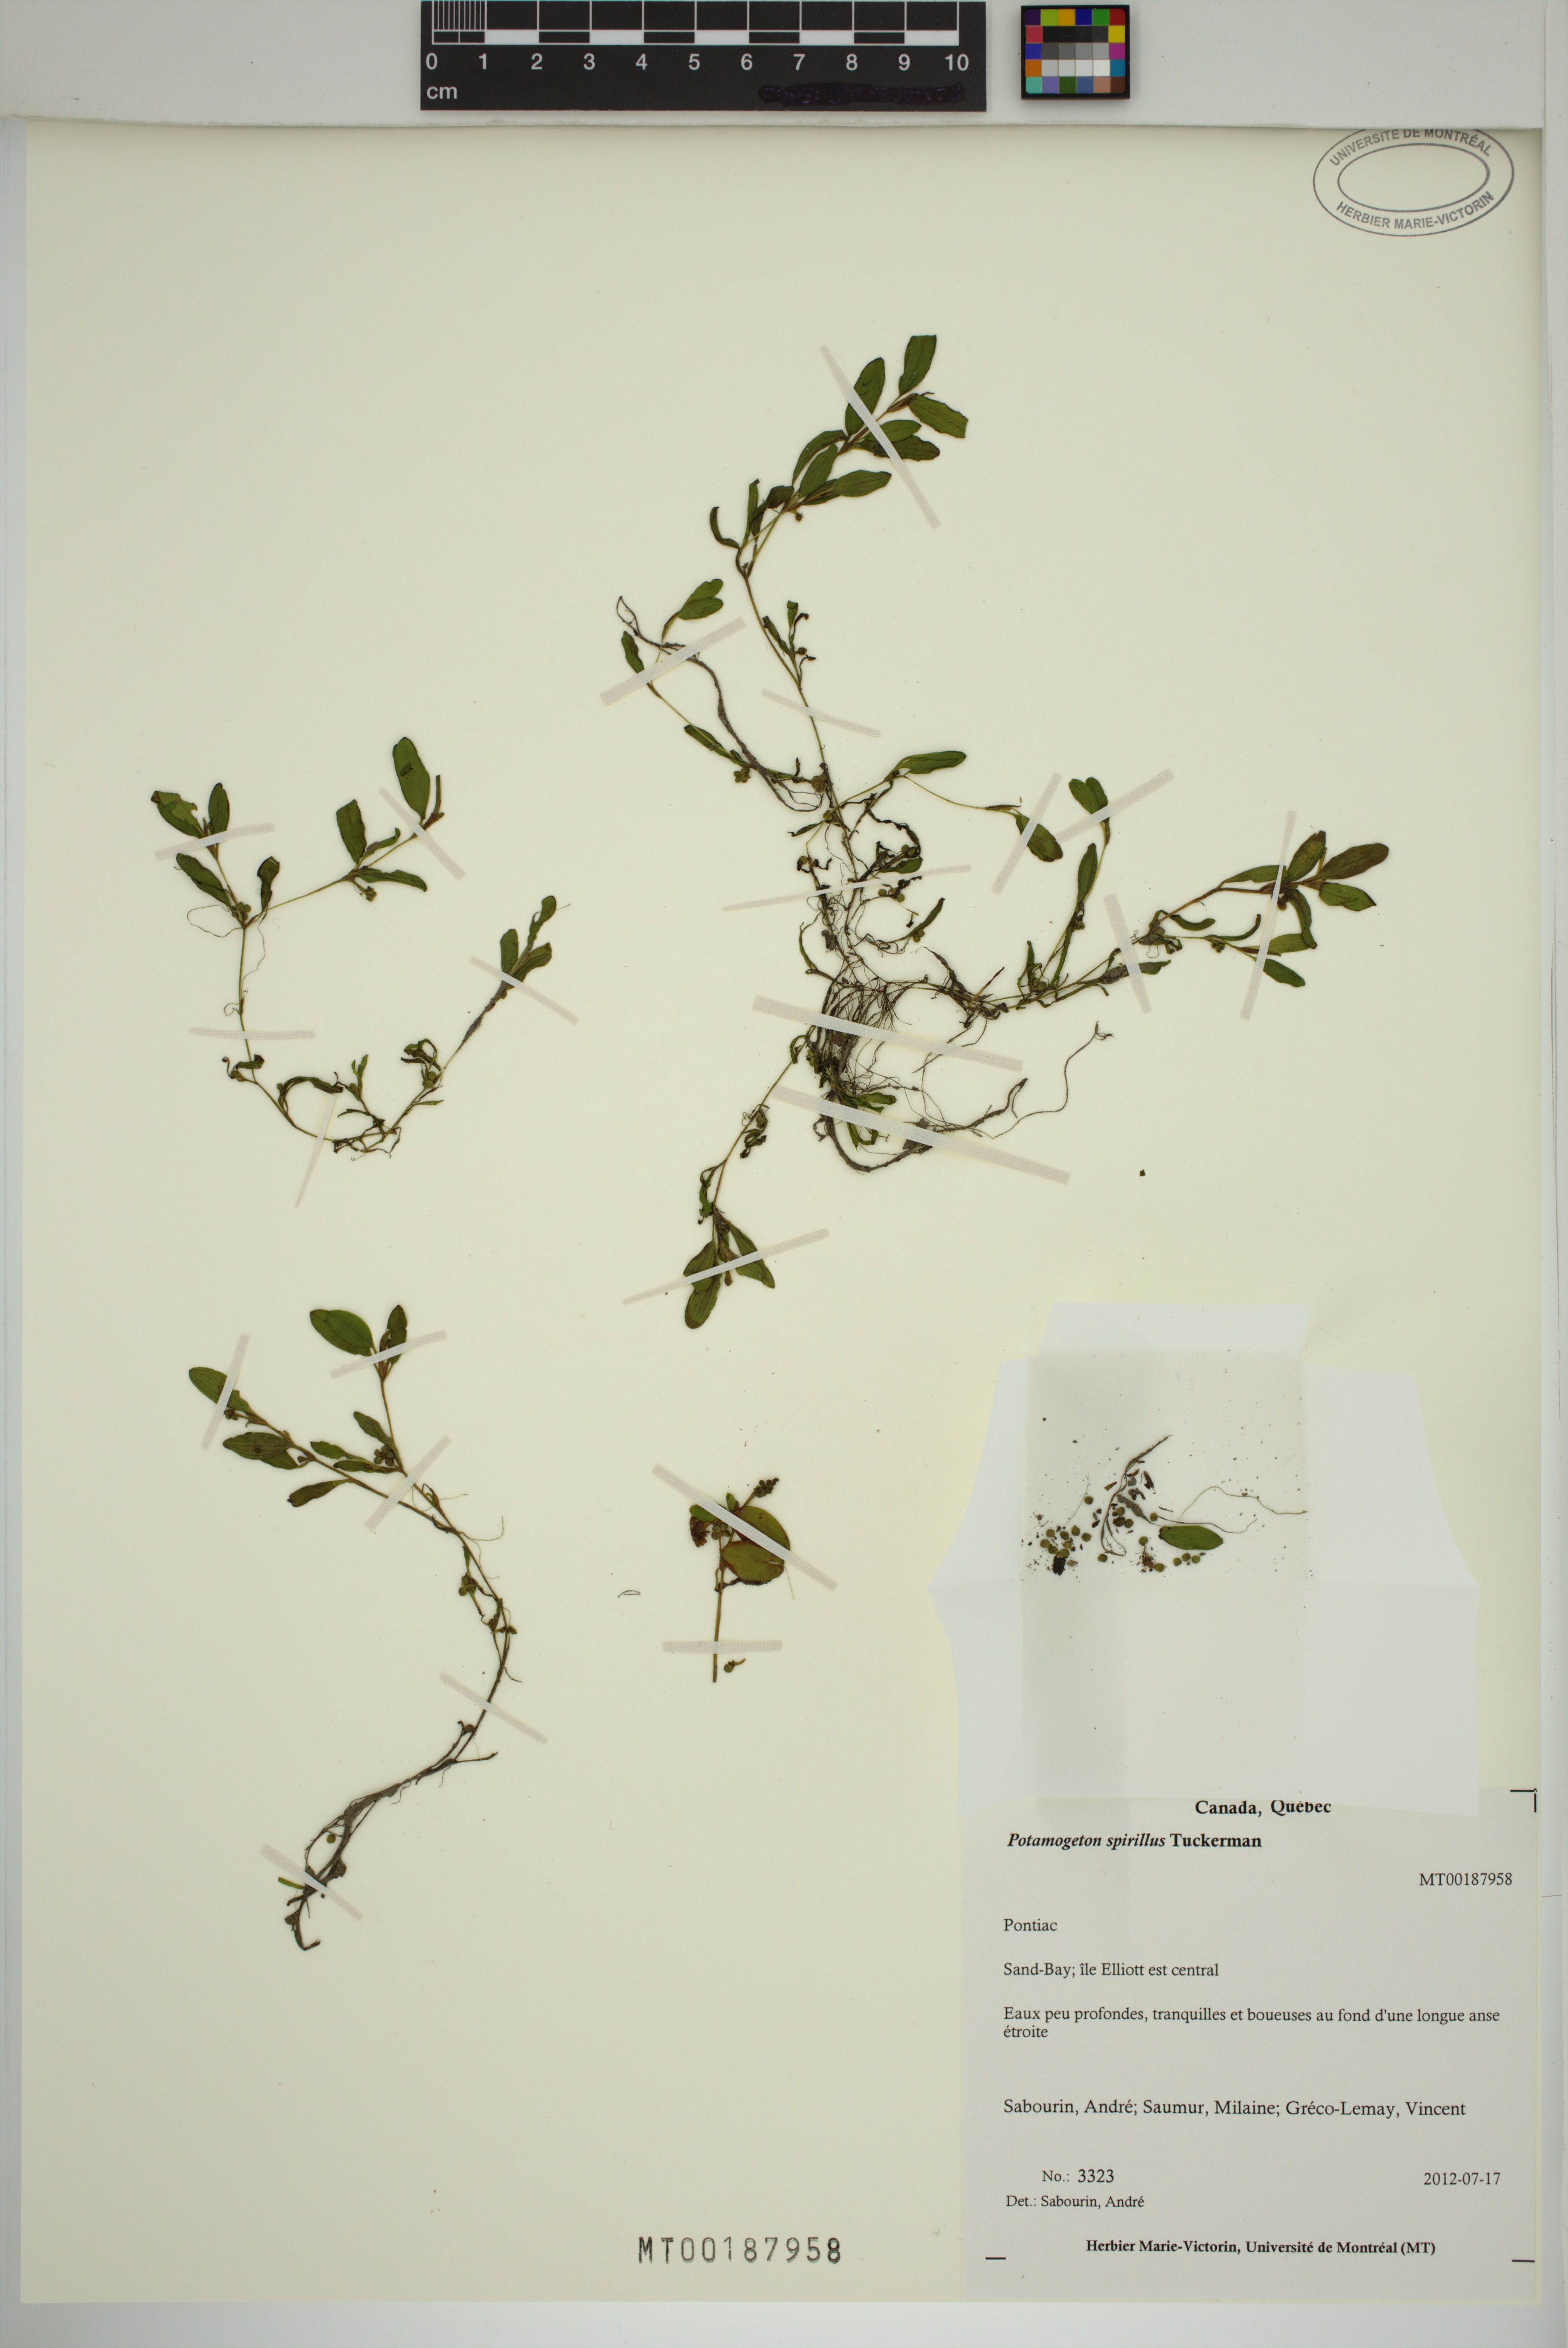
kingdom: Plantae
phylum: Tracheophyta
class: Liliopsida
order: Alismatales
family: Potamogetonaceae
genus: Potamogeton
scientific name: Potamogeton spirillus
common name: Northern snail-seed pondweed
